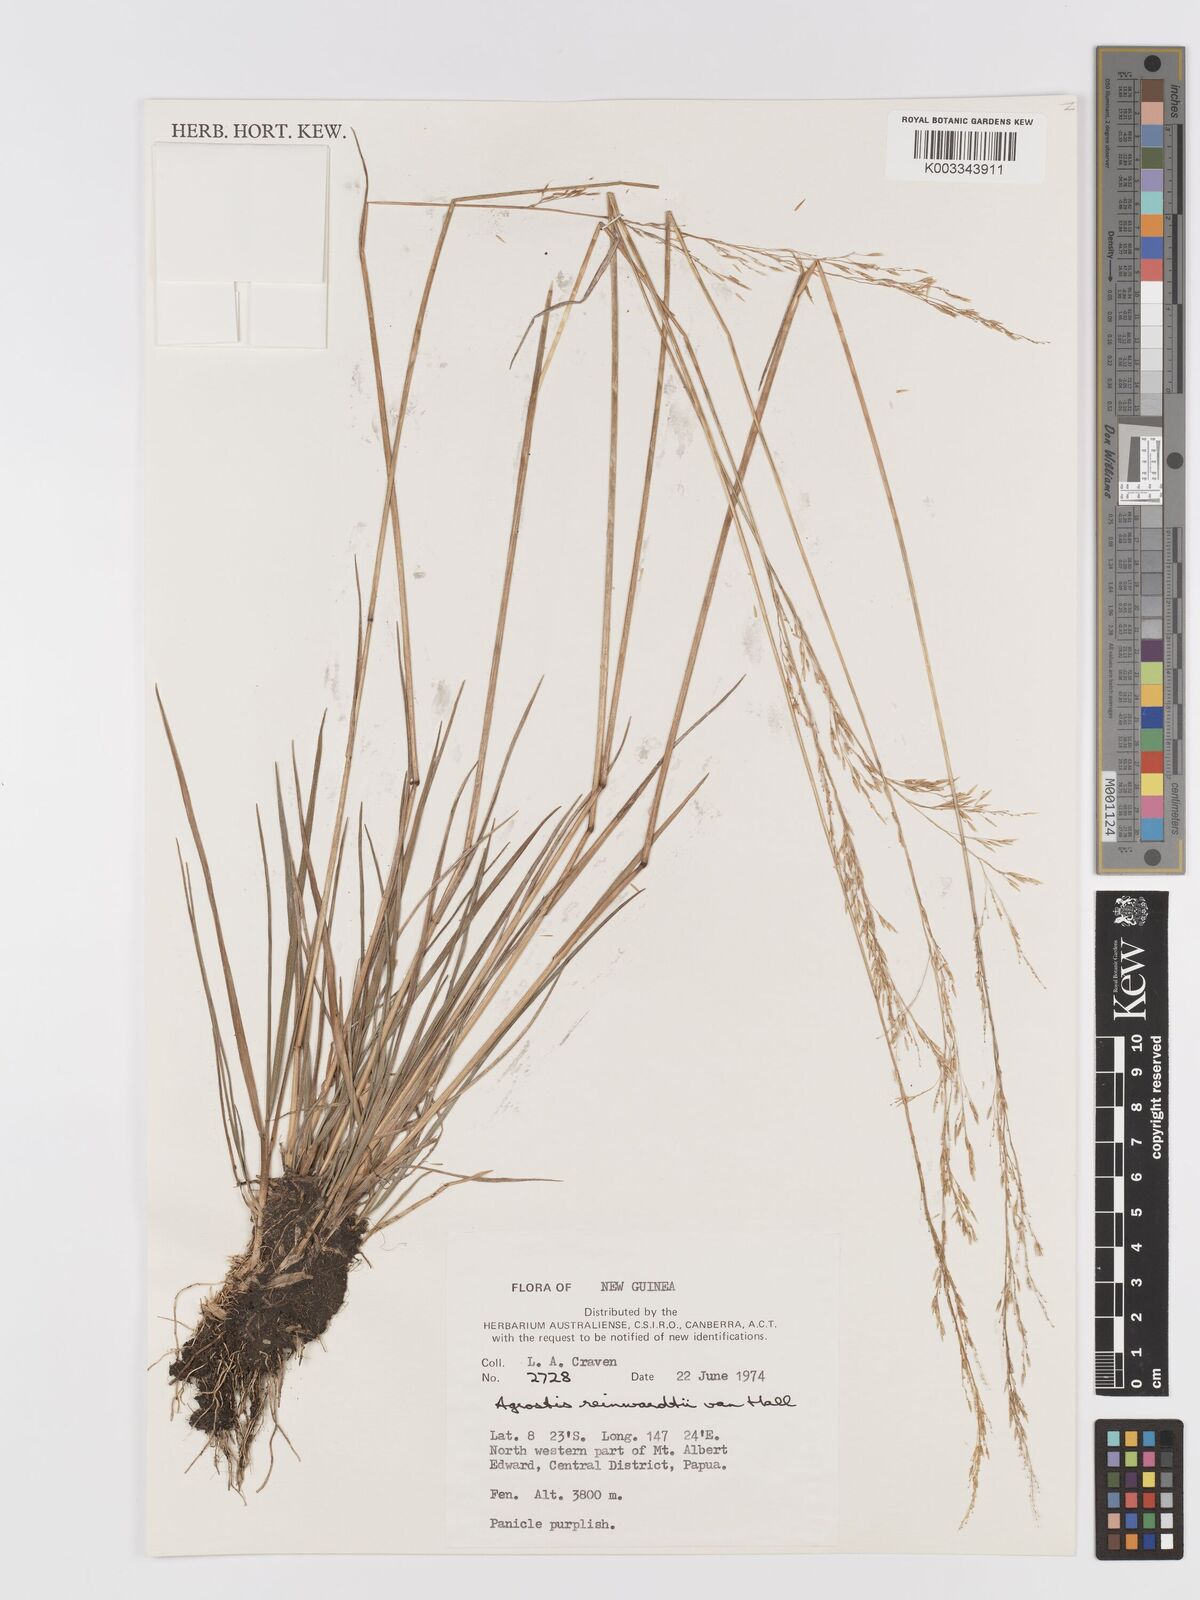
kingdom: Plantae
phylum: Tracheophyta
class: Liliopsida
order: Poales
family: Poaceae
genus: Agrostis
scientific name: Agrostis infirma
